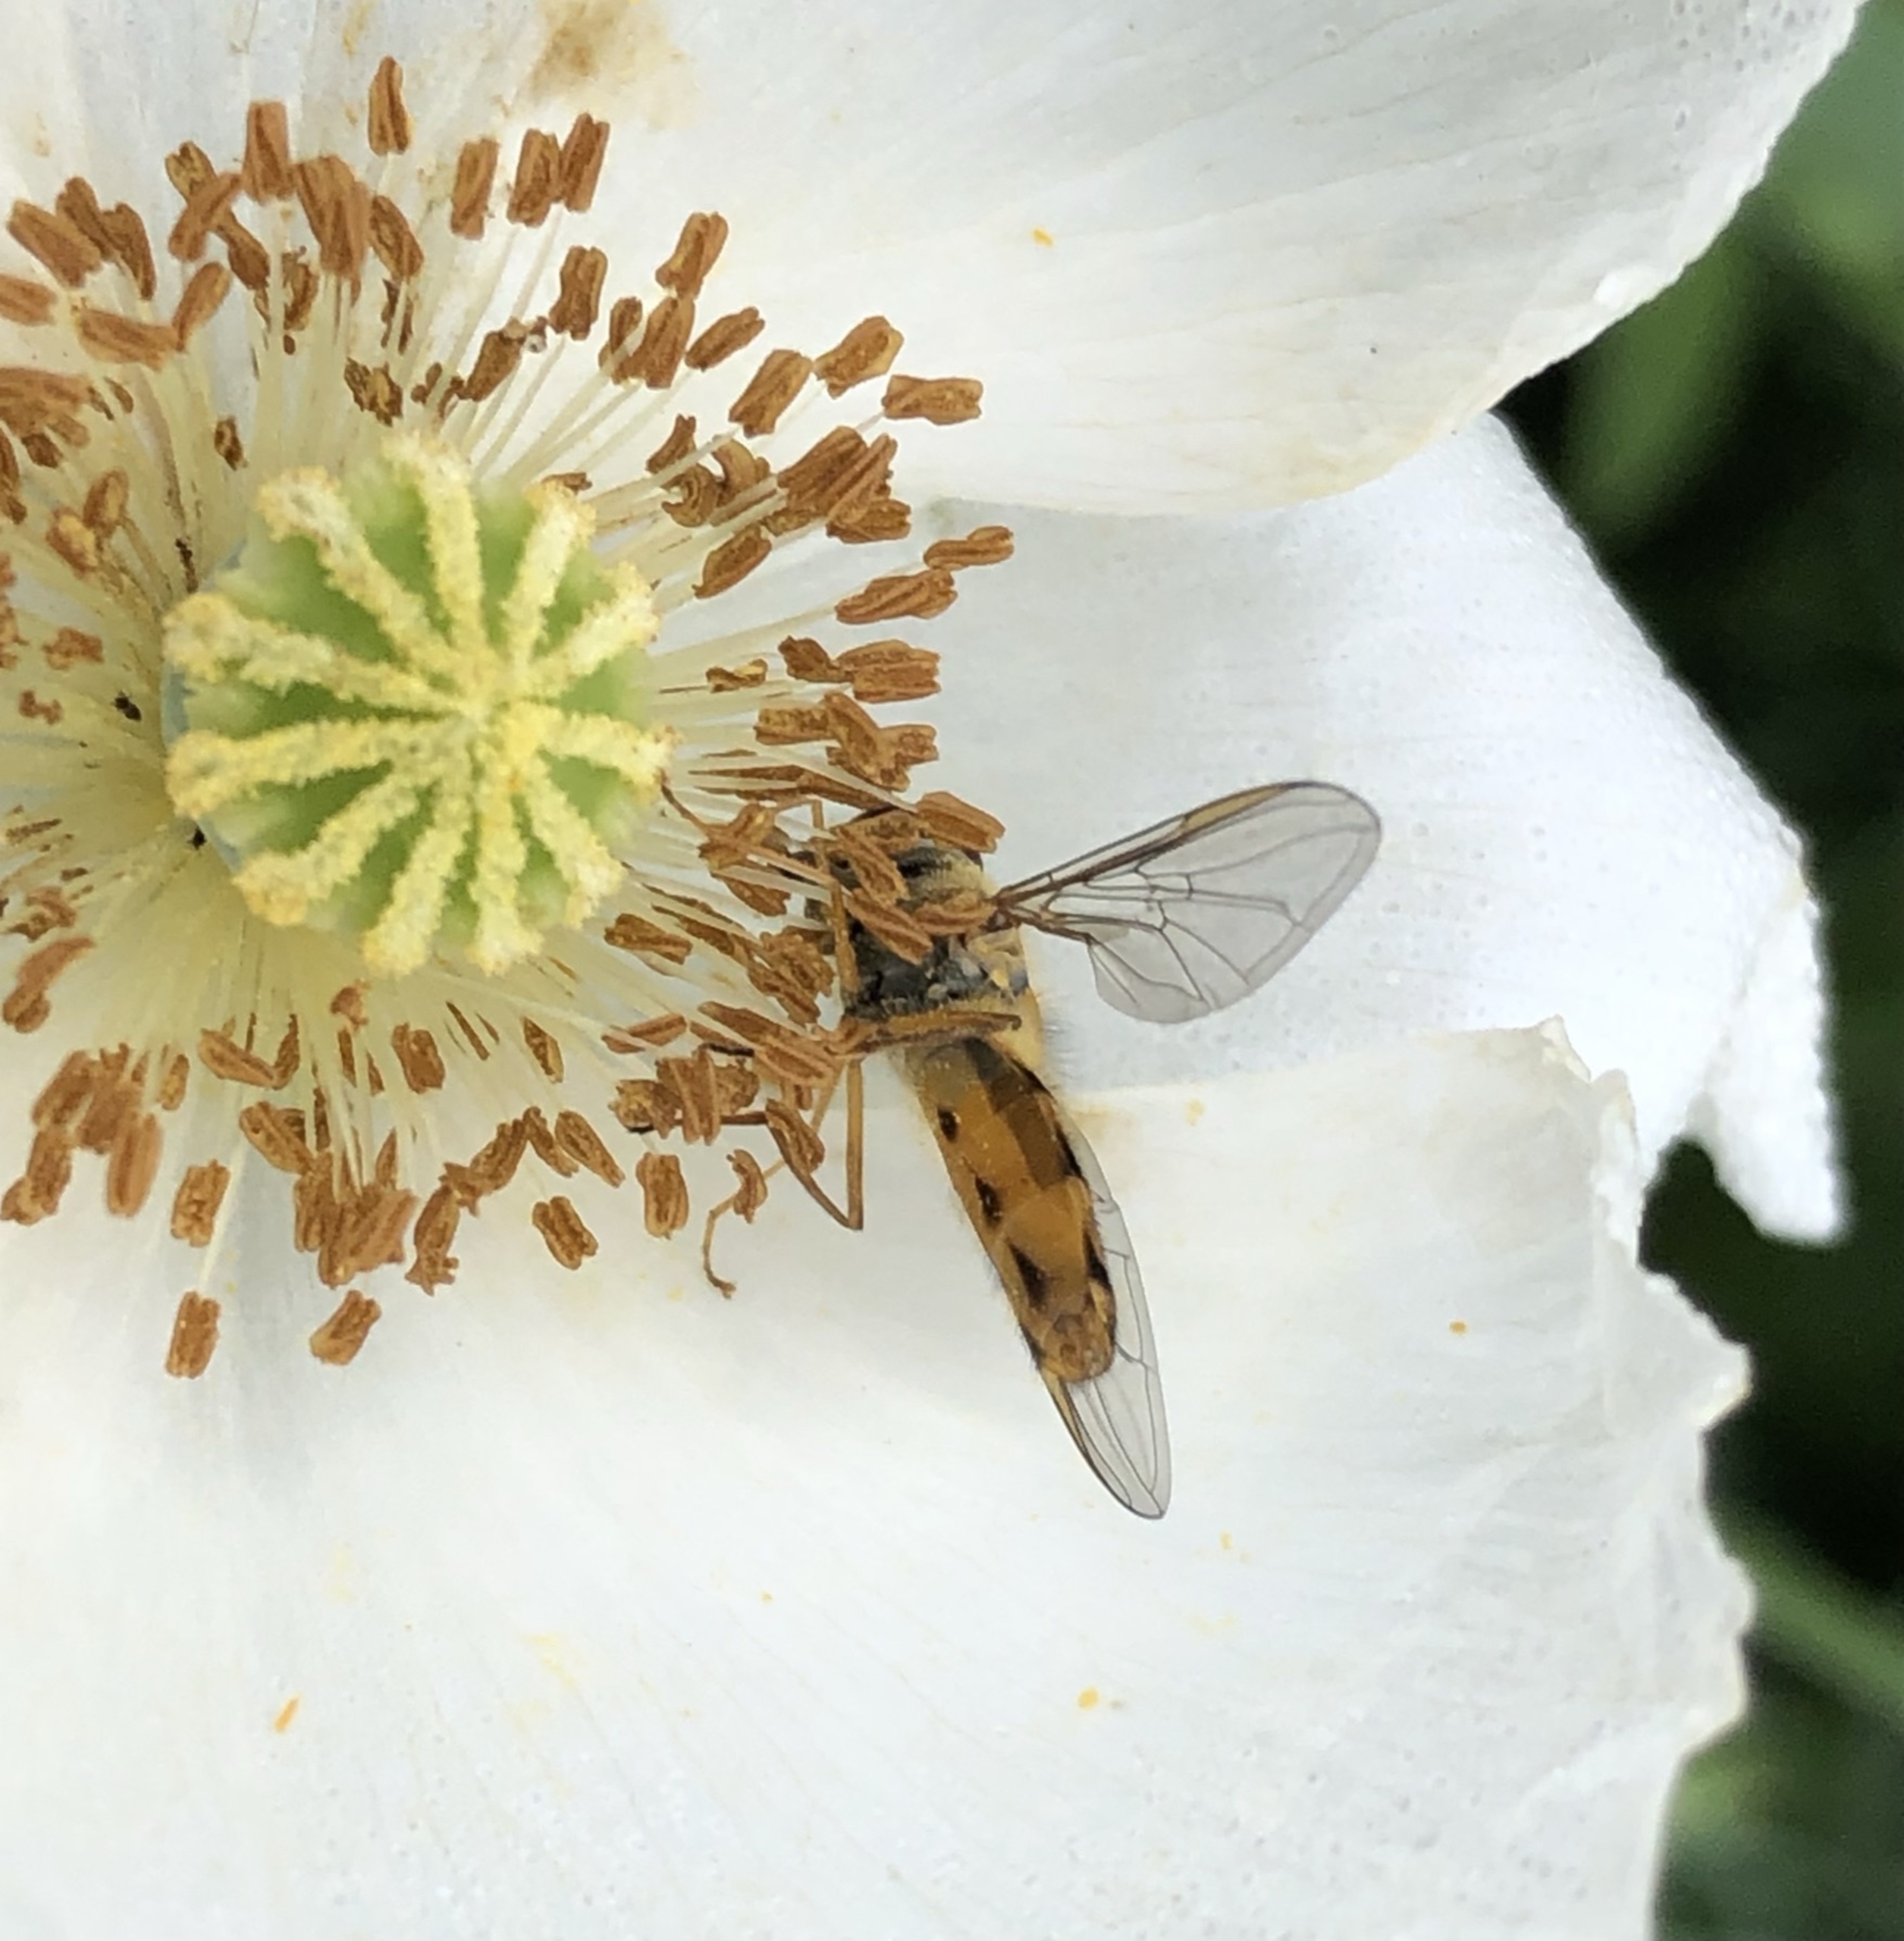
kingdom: Animalia
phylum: Arthropoda
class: Insecta
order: Diptera
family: Syrphidae
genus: Episyrphus
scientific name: Episyrphus balteatus
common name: Dobbeltbåndet svirreflue
